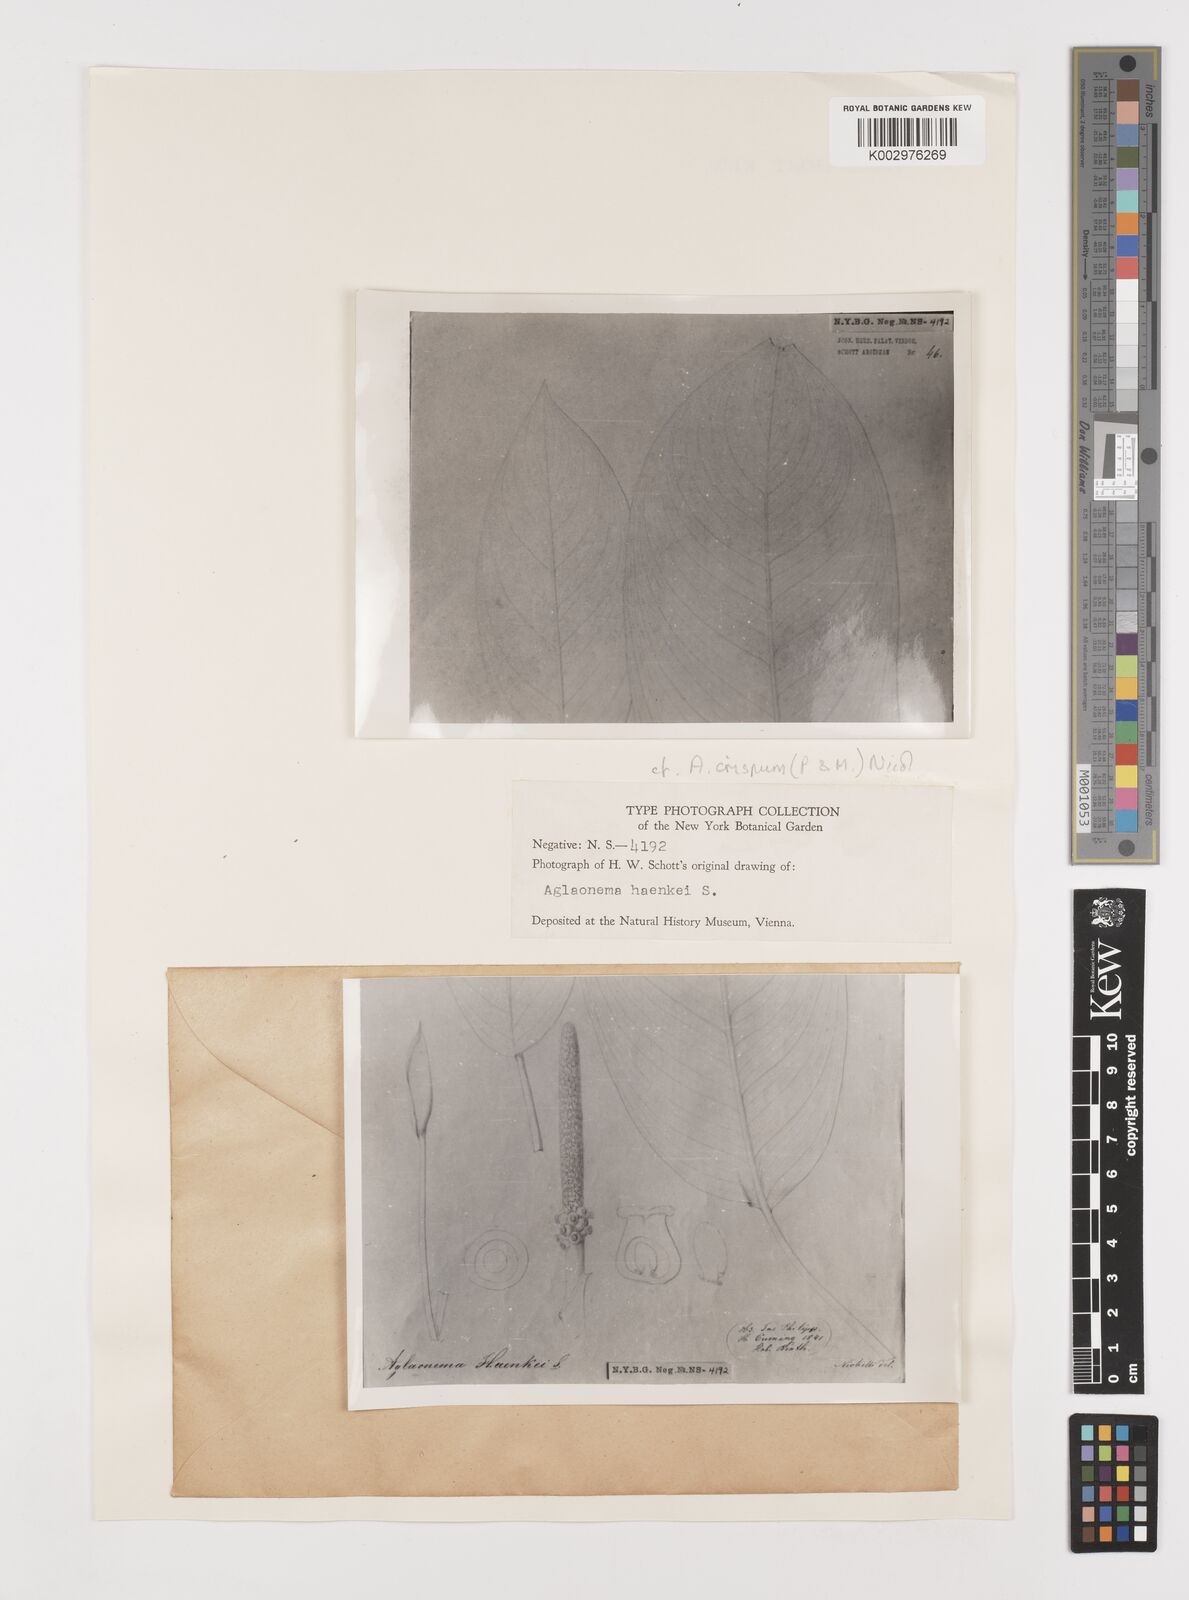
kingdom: Plantae
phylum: Tracheophyta
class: Liliopsida
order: Alismatales
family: Araceae
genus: Aglaonema
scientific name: Aglaonema densinervium
